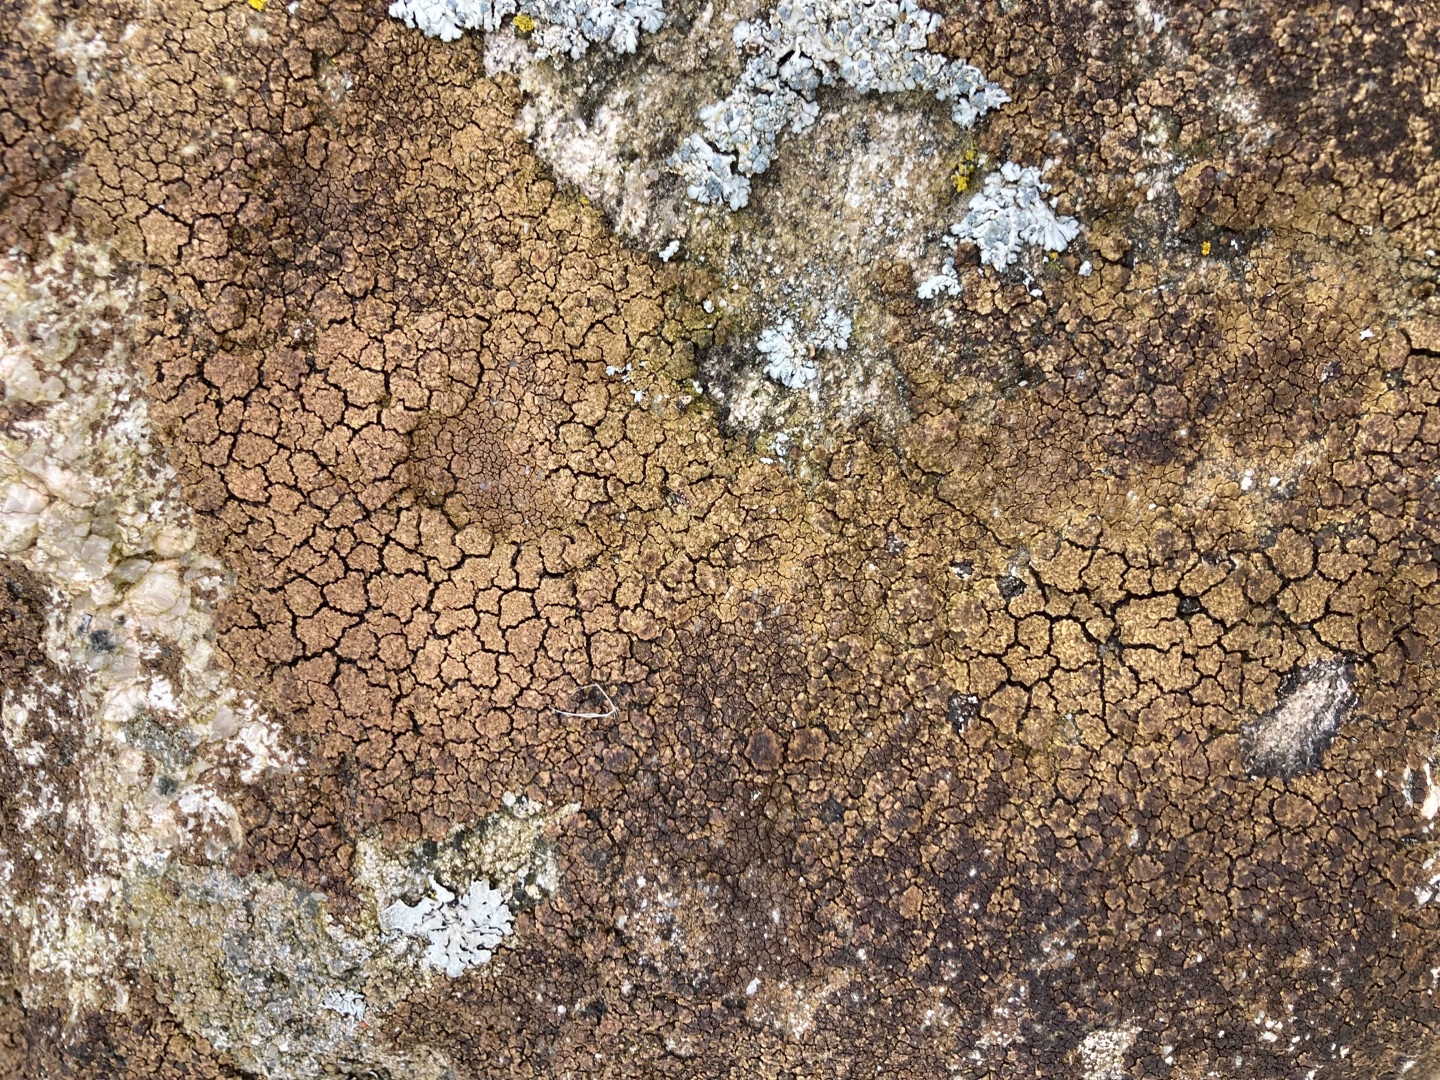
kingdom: Fungi
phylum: Ascomycota
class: Lecanoromycetes
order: Acarosporales
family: Acarosporaceae
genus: Acarospora
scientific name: Acarospora fuscata
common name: Brun småsporelav
